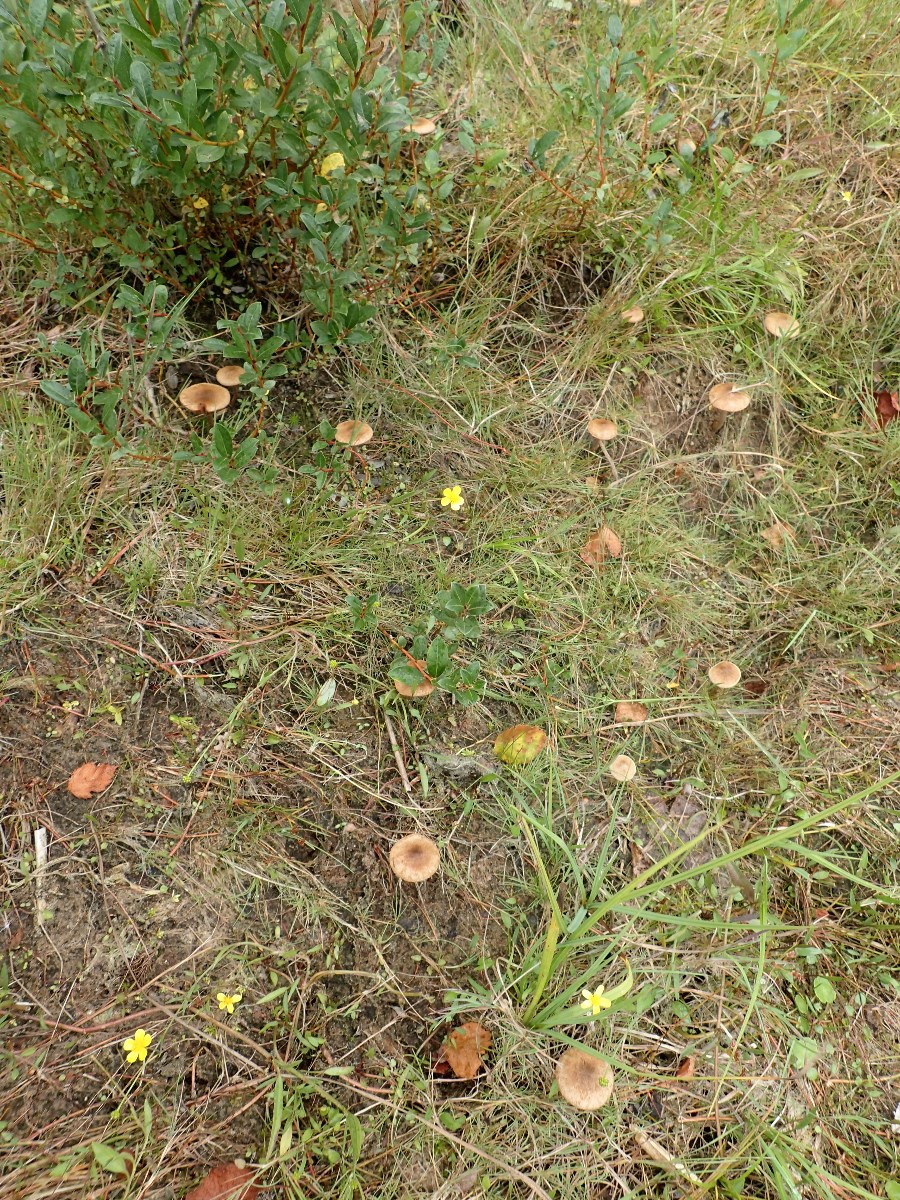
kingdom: Fungi
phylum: Basidiomycota
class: Agaricomycetes
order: Agaricales
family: Inocybaceae
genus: Inocybe
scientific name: Inocybe lacera
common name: laset trævlhat
